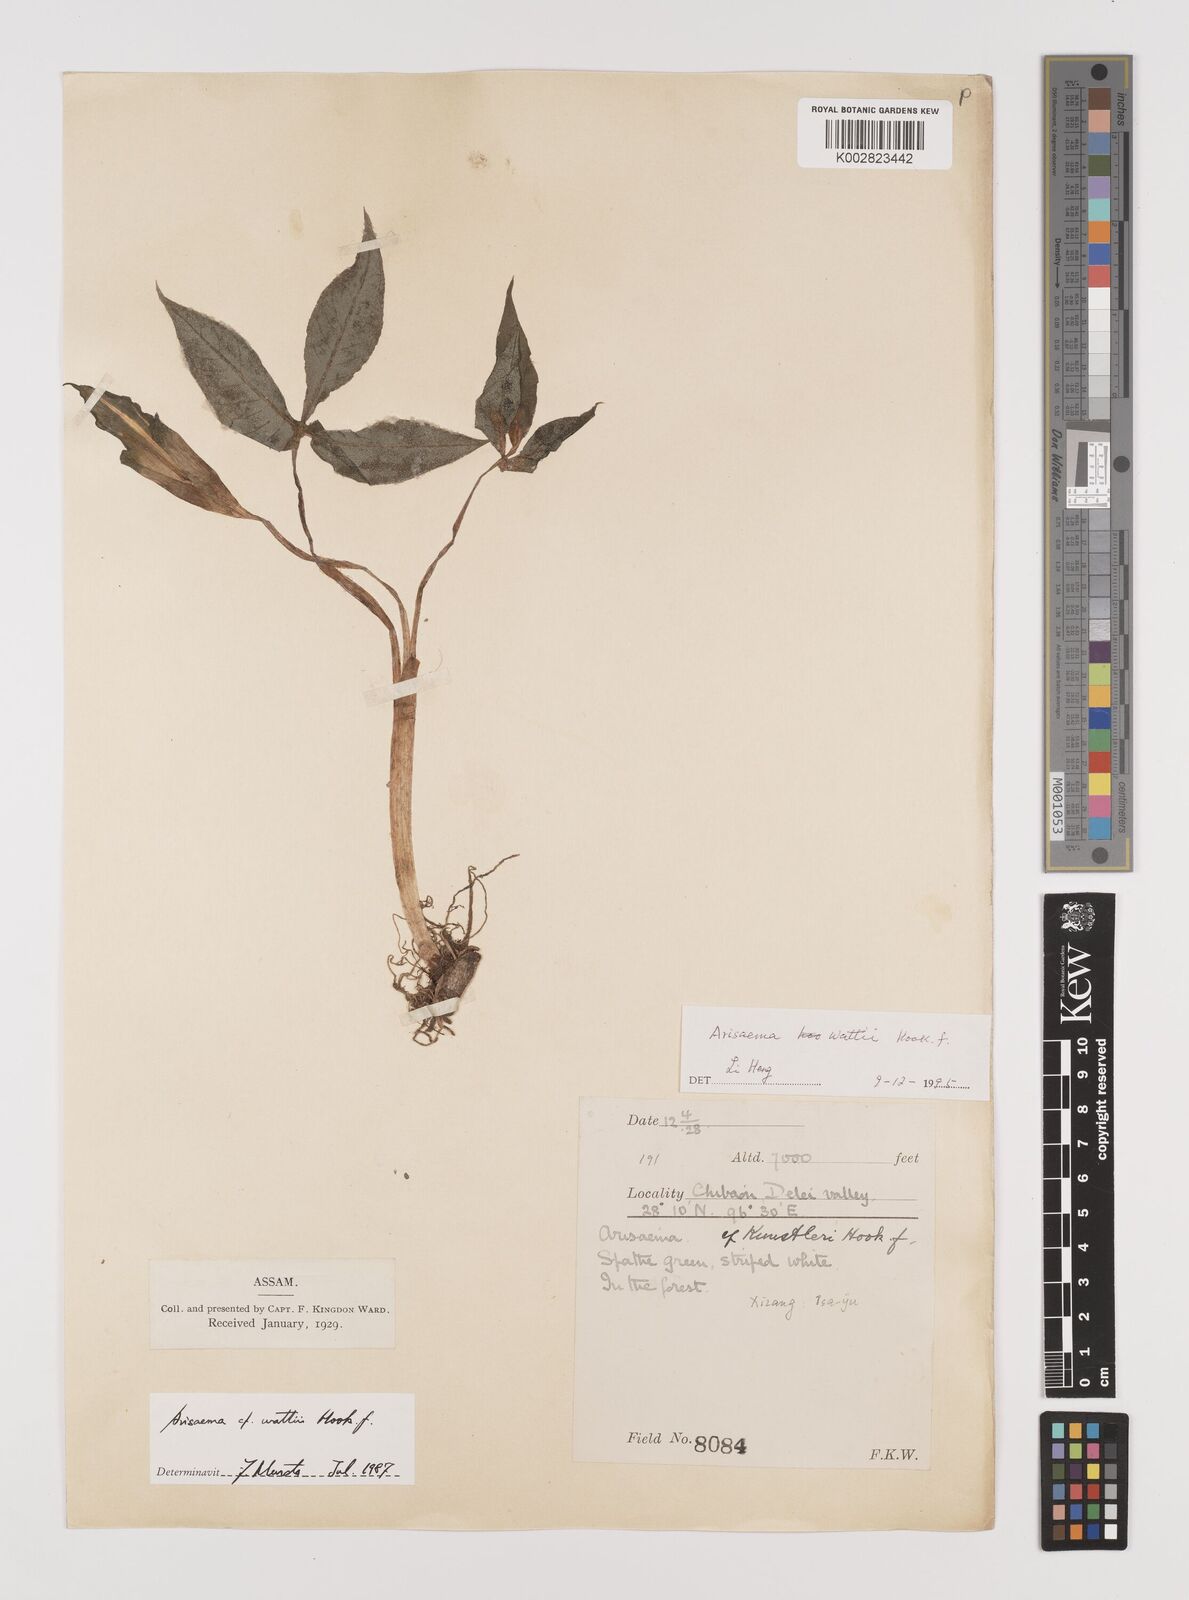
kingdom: Plantae
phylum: Tracheophyta
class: Liliopsida
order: Alismatales
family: Araceae
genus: Arisaema
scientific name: Arisaema wattii
